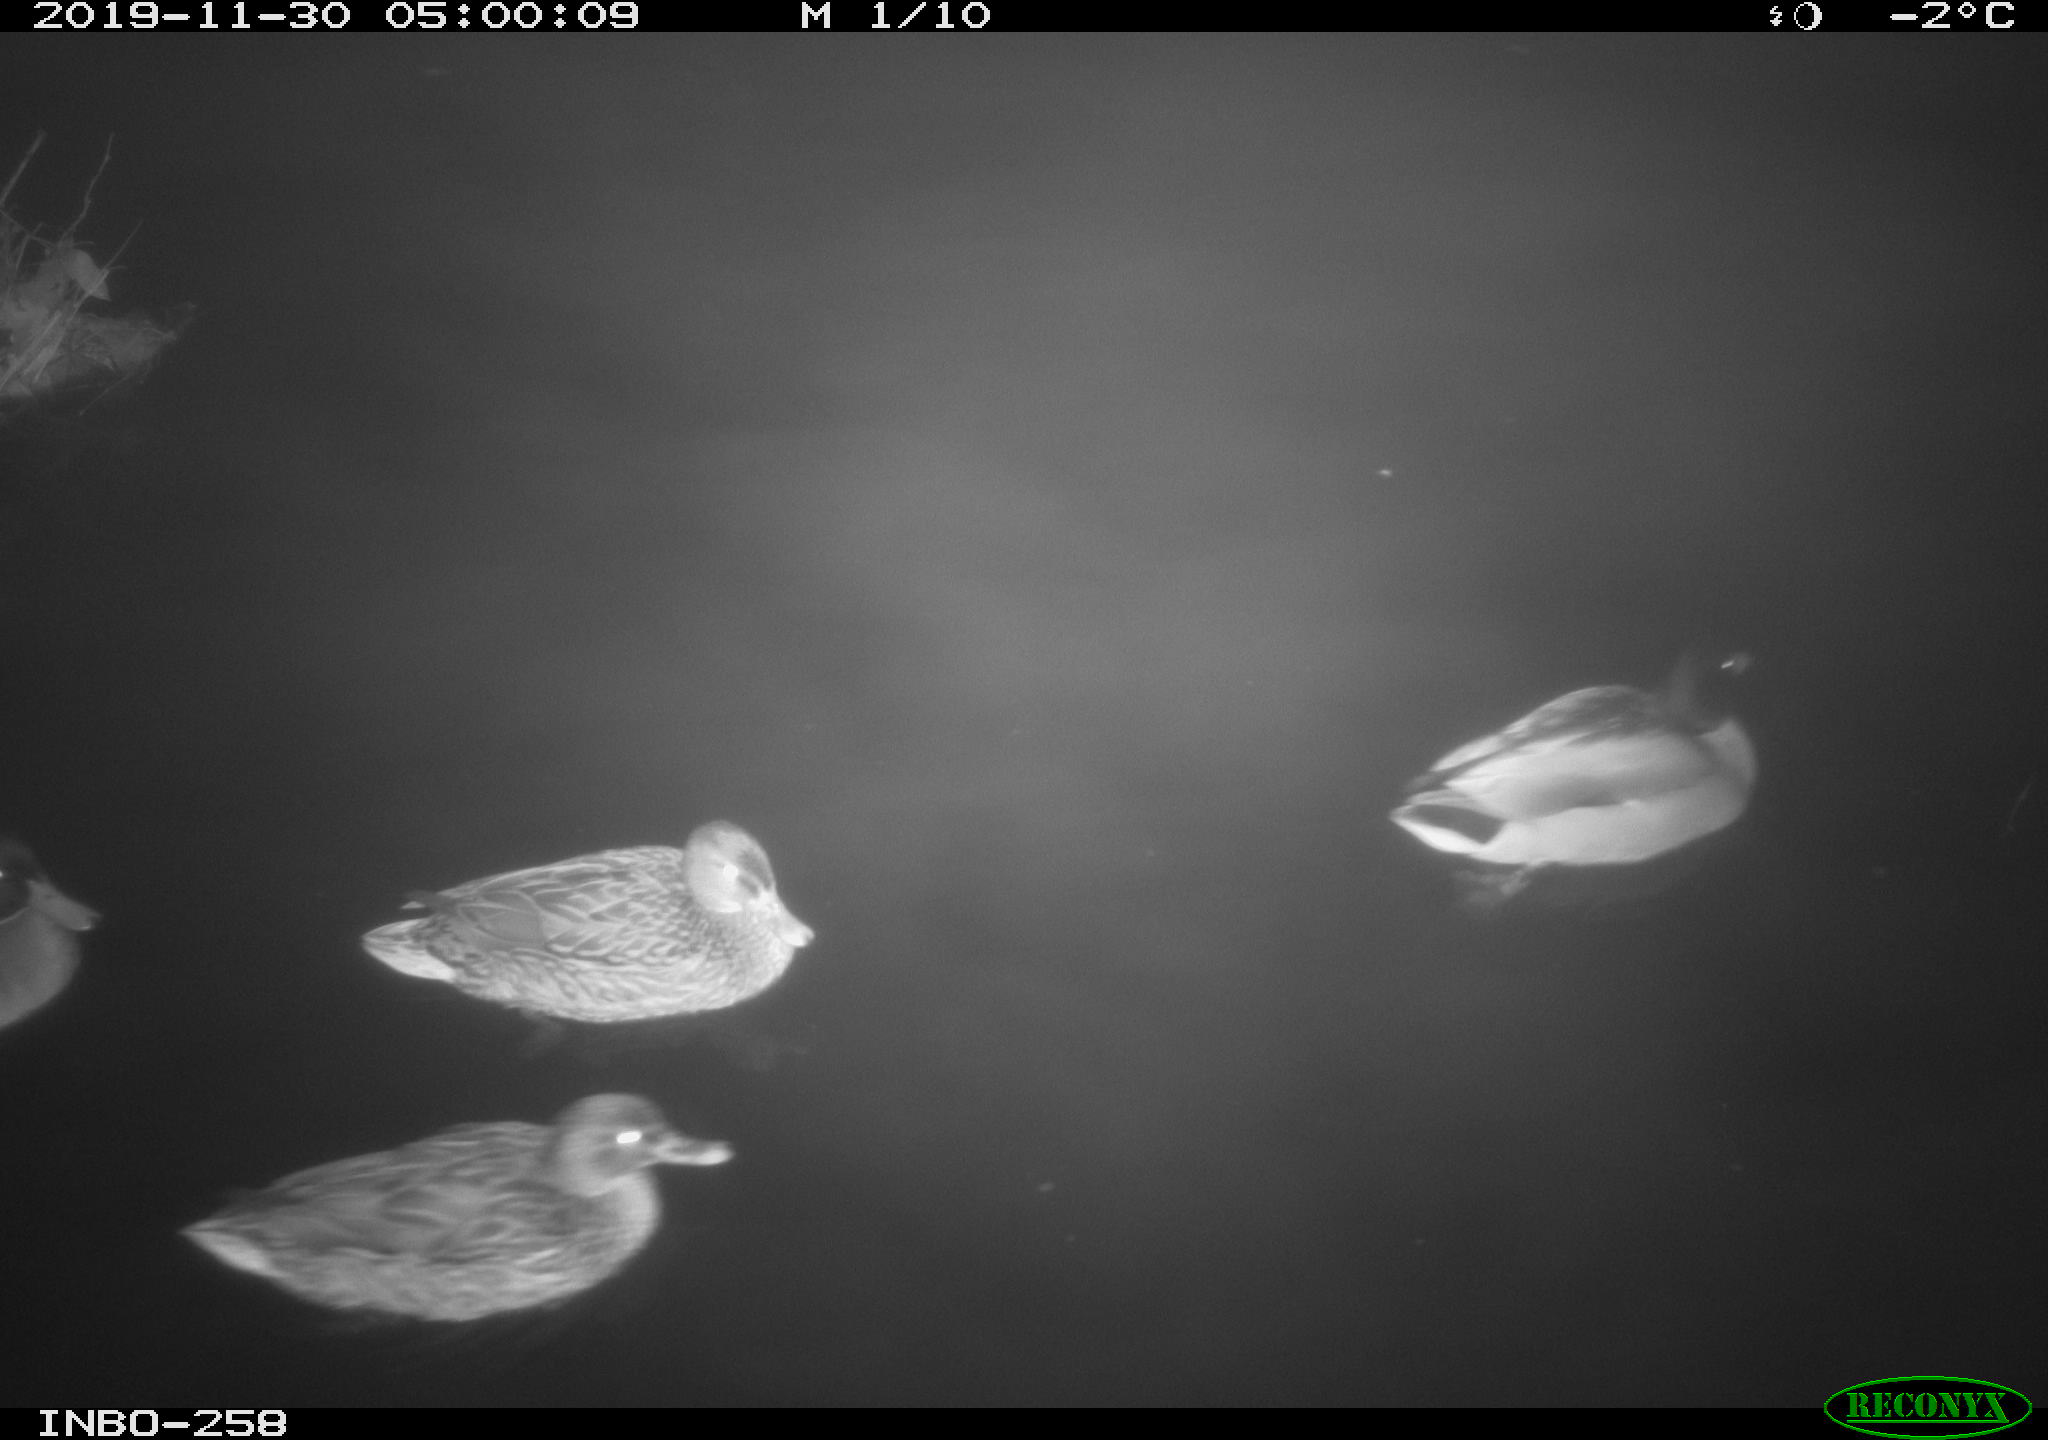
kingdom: Animalia
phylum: Chordata
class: Aves
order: Anseriformes
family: Anatidae
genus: Anas
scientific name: Anas platyrhynchos
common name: Mallard
